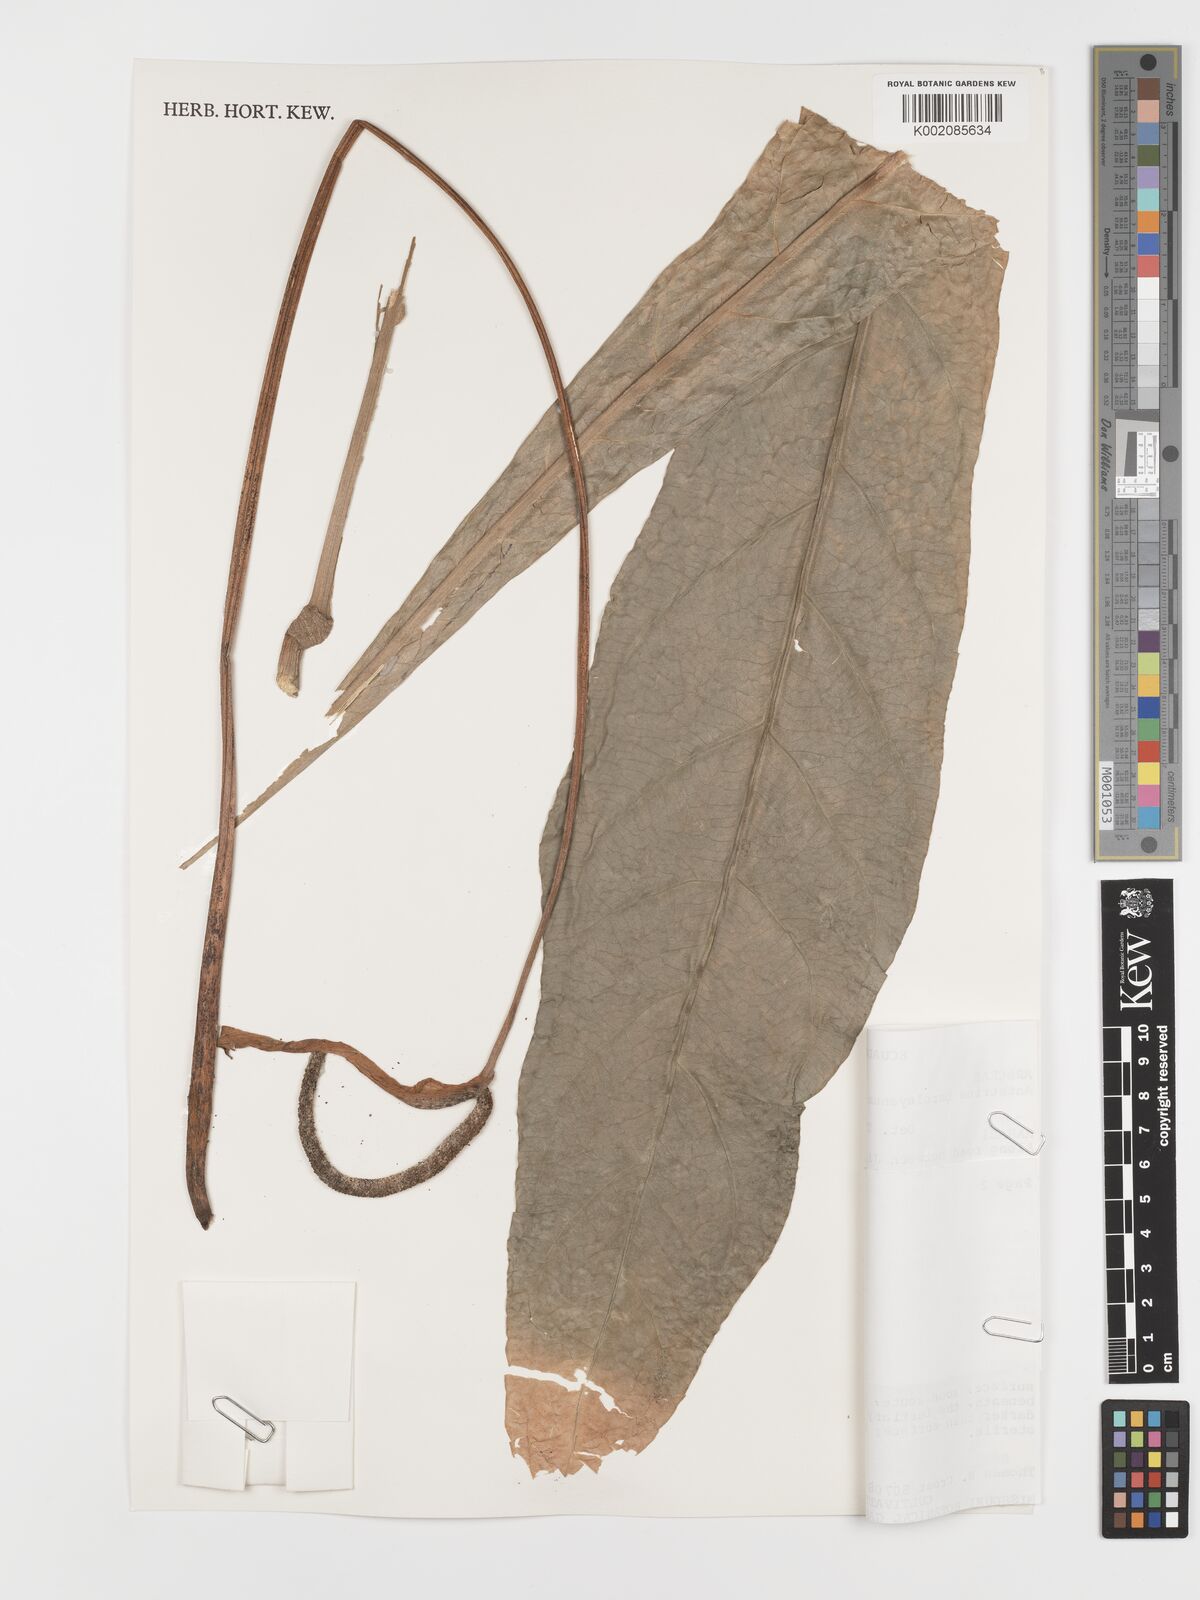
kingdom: Plantae
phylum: Tracheophyta
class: Liliopsida
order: Alismatales
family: Araceae
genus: Anthurium
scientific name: Anthurium balaoanum
